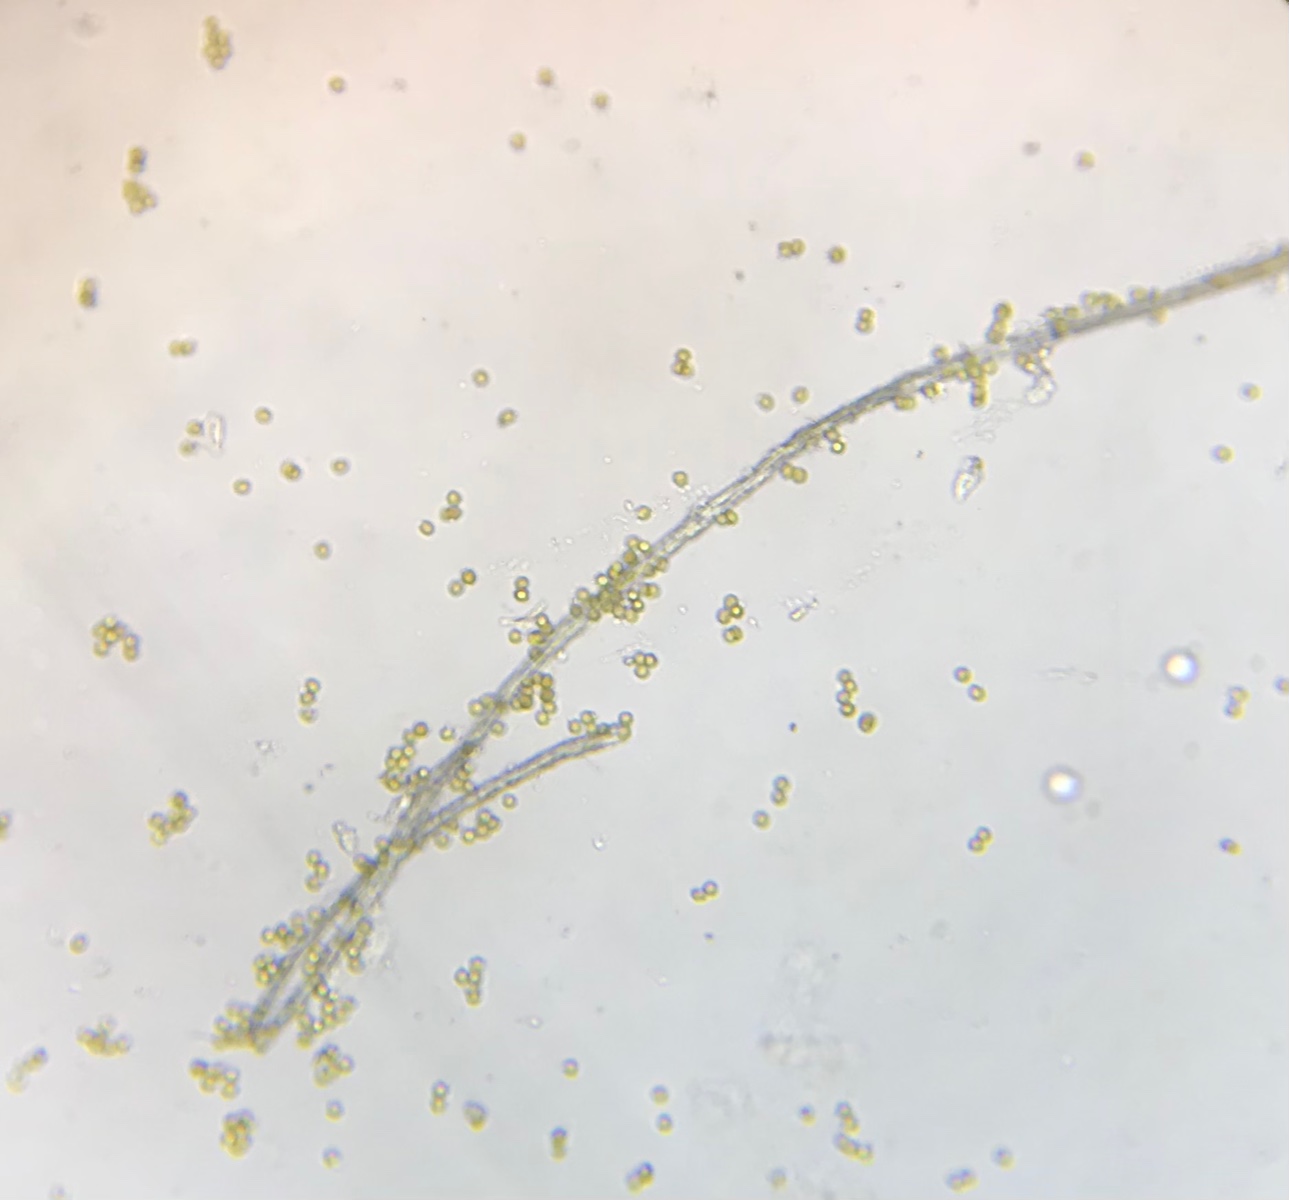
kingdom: Protozoa
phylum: Mycetozoa
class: Myxomycetes
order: Trichiales
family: Trichiaceae
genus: Perichaena
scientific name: Perichaena corticalis
